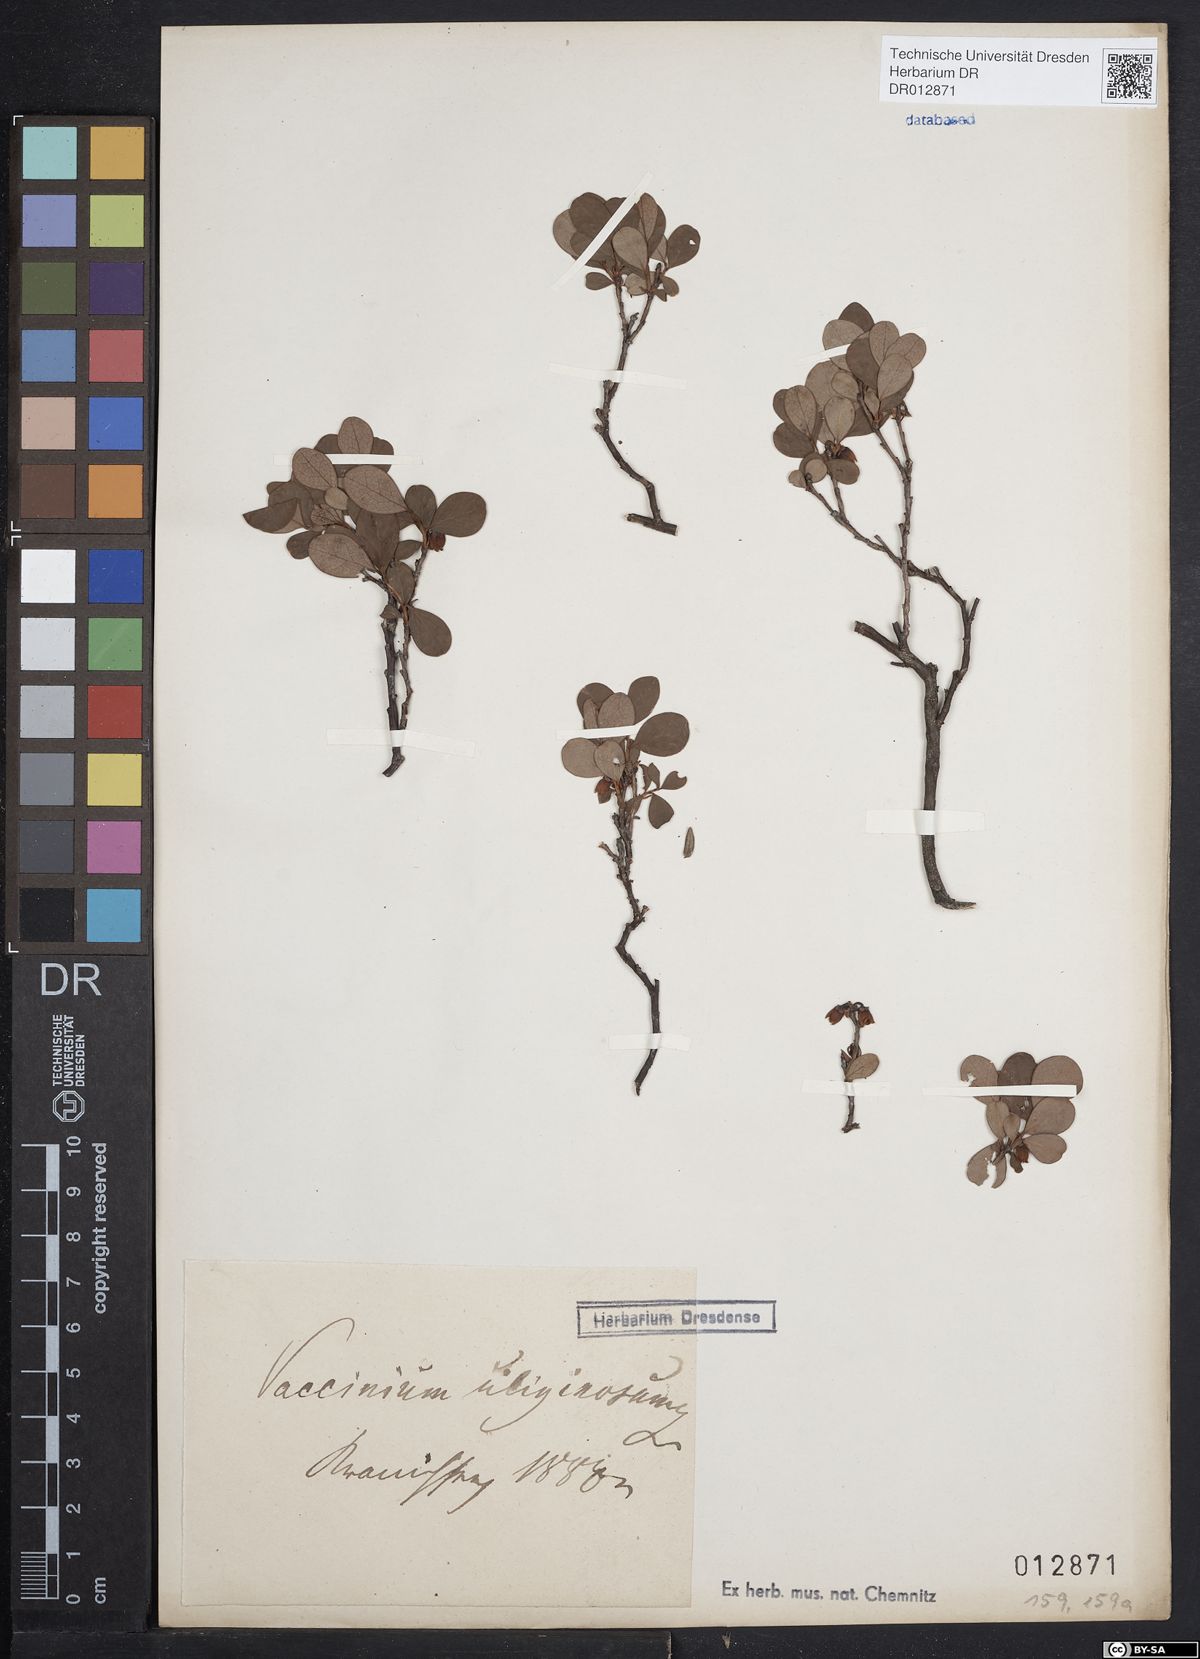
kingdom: Plantae
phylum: Tracheophyta
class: Magnoliopsida
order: Ericales
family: Ericaceae
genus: Vaccinium
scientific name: Vaccinium uliginosum
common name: Bog bilberry
